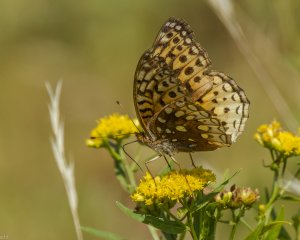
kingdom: Animalia
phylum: Arthropoda
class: Insecta
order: Lepidoptera
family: Nymphalidae
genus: Speyeria
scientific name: Speyeria cybele
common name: Great Spangled Fritillary
